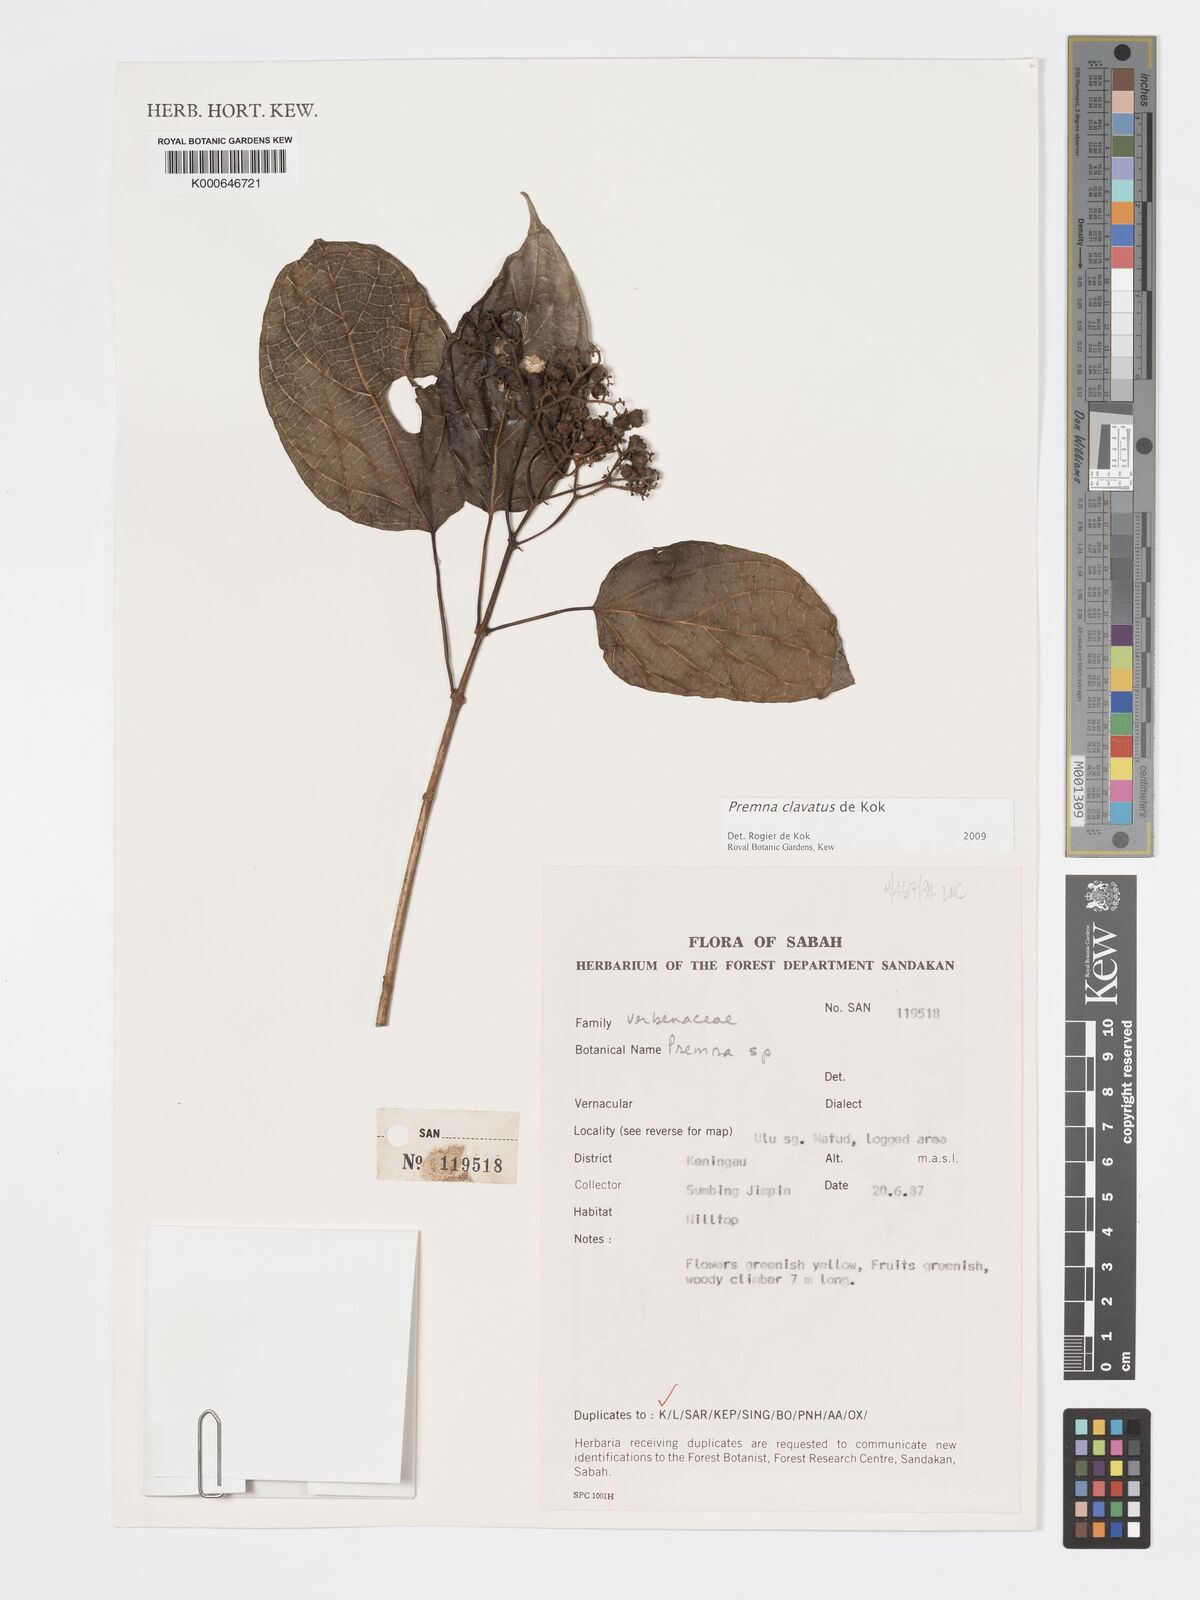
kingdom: Plantae
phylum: Tracheophyta
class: Magnoliopsida
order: Lamiales
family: Lamiaceae
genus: Premna
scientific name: Premna
